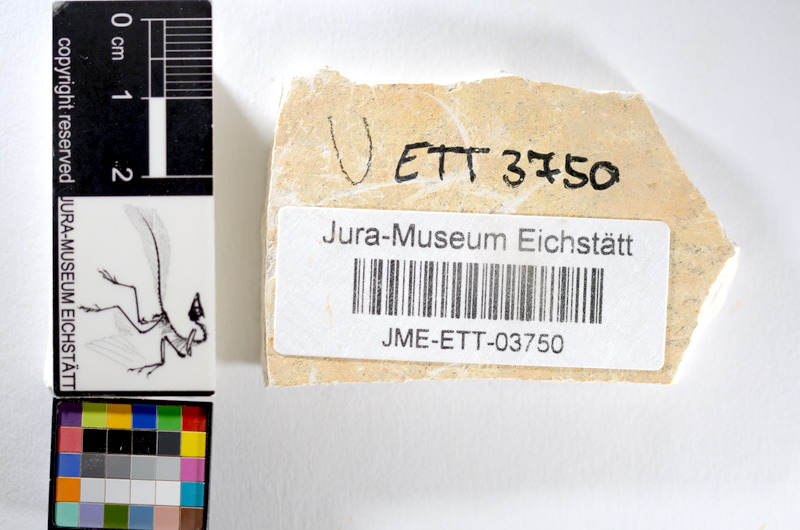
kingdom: Animalia
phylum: Chordata
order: Salmoniformes
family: Orthogonikleithridae
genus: Orthogonikleithrus
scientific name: Orthogonikleithrus hoelli
